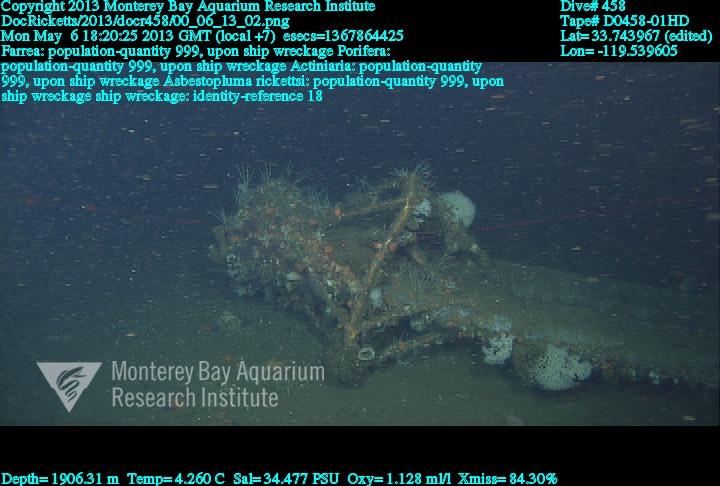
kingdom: Animalia
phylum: Porifera
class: Demospongiae
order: Poecilosclerida
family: Cladorhizidae
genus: Asbestopluma
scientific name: Asbestopluma rickettsi
